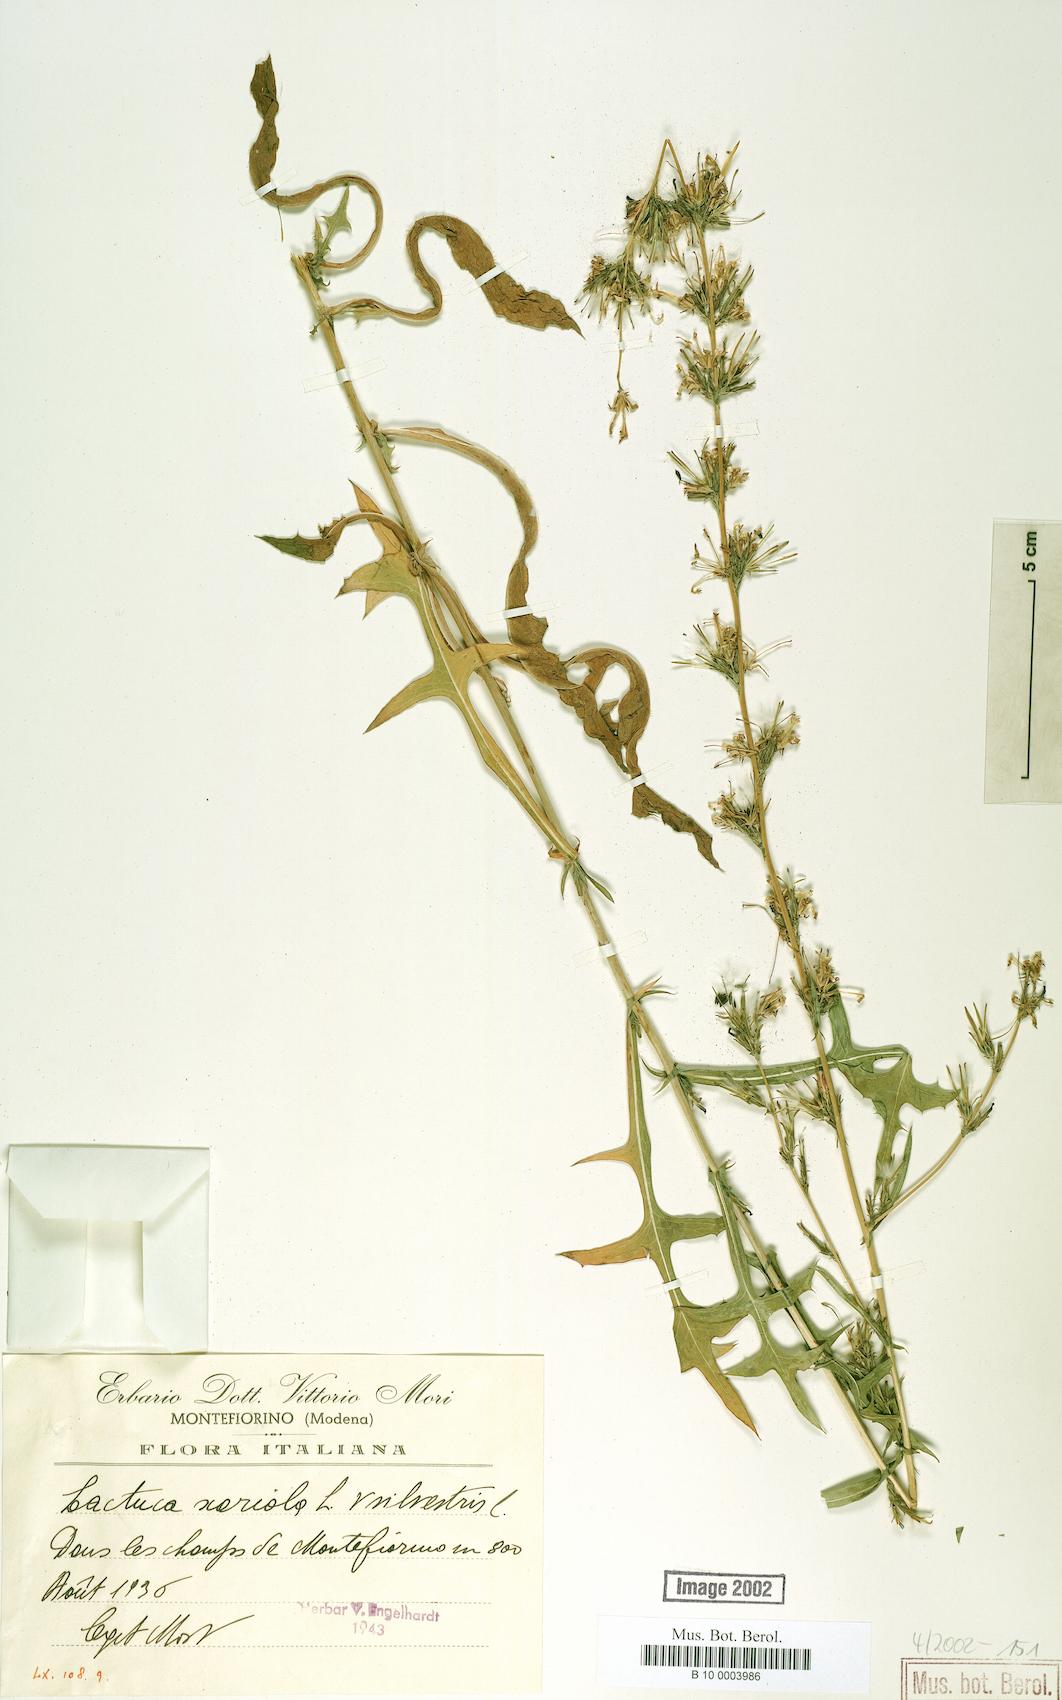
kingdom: Plantae
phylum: Tracheophyta
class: Magnoliopsida
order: Asterales
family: Asteraceae
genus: Lactuca
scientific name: Lactuca serriola
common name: Prickly lettuce
